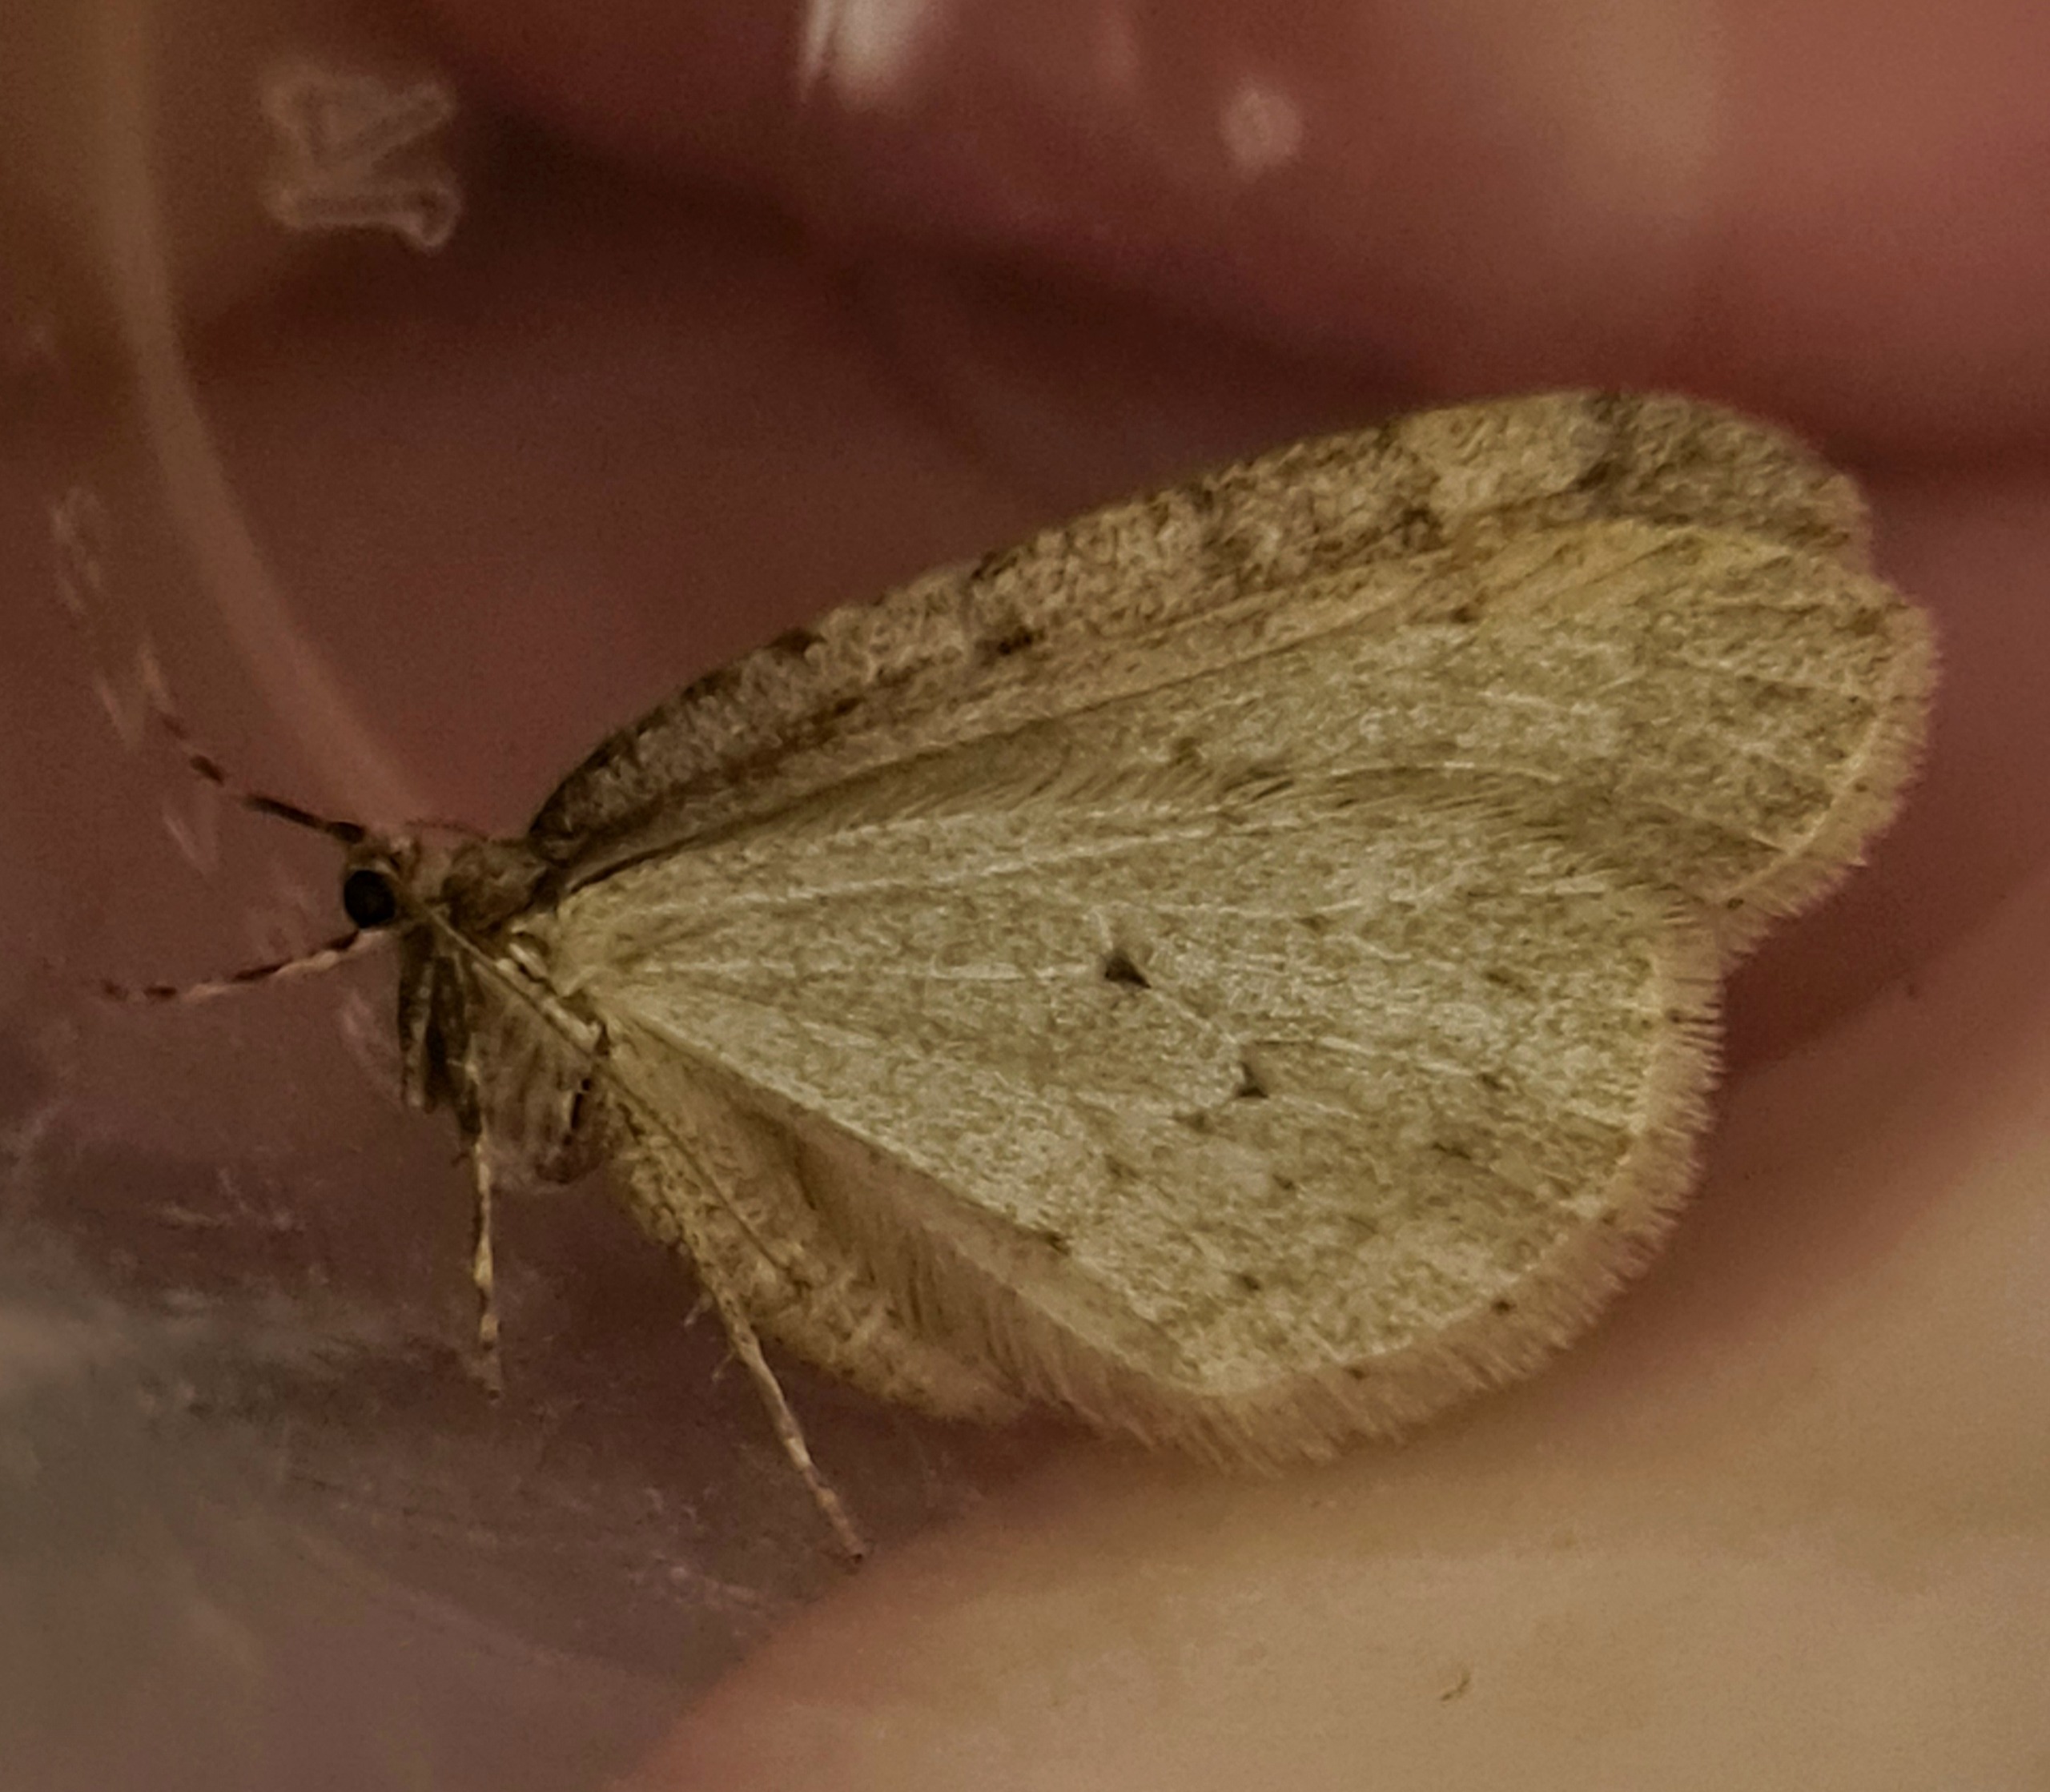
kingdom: Animalia
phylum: Arthropoda
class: Insecta
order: Lepidoptera
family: Geometridae
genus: Operophtera
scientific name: Operophtera brumata
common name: Lille frostmåler
